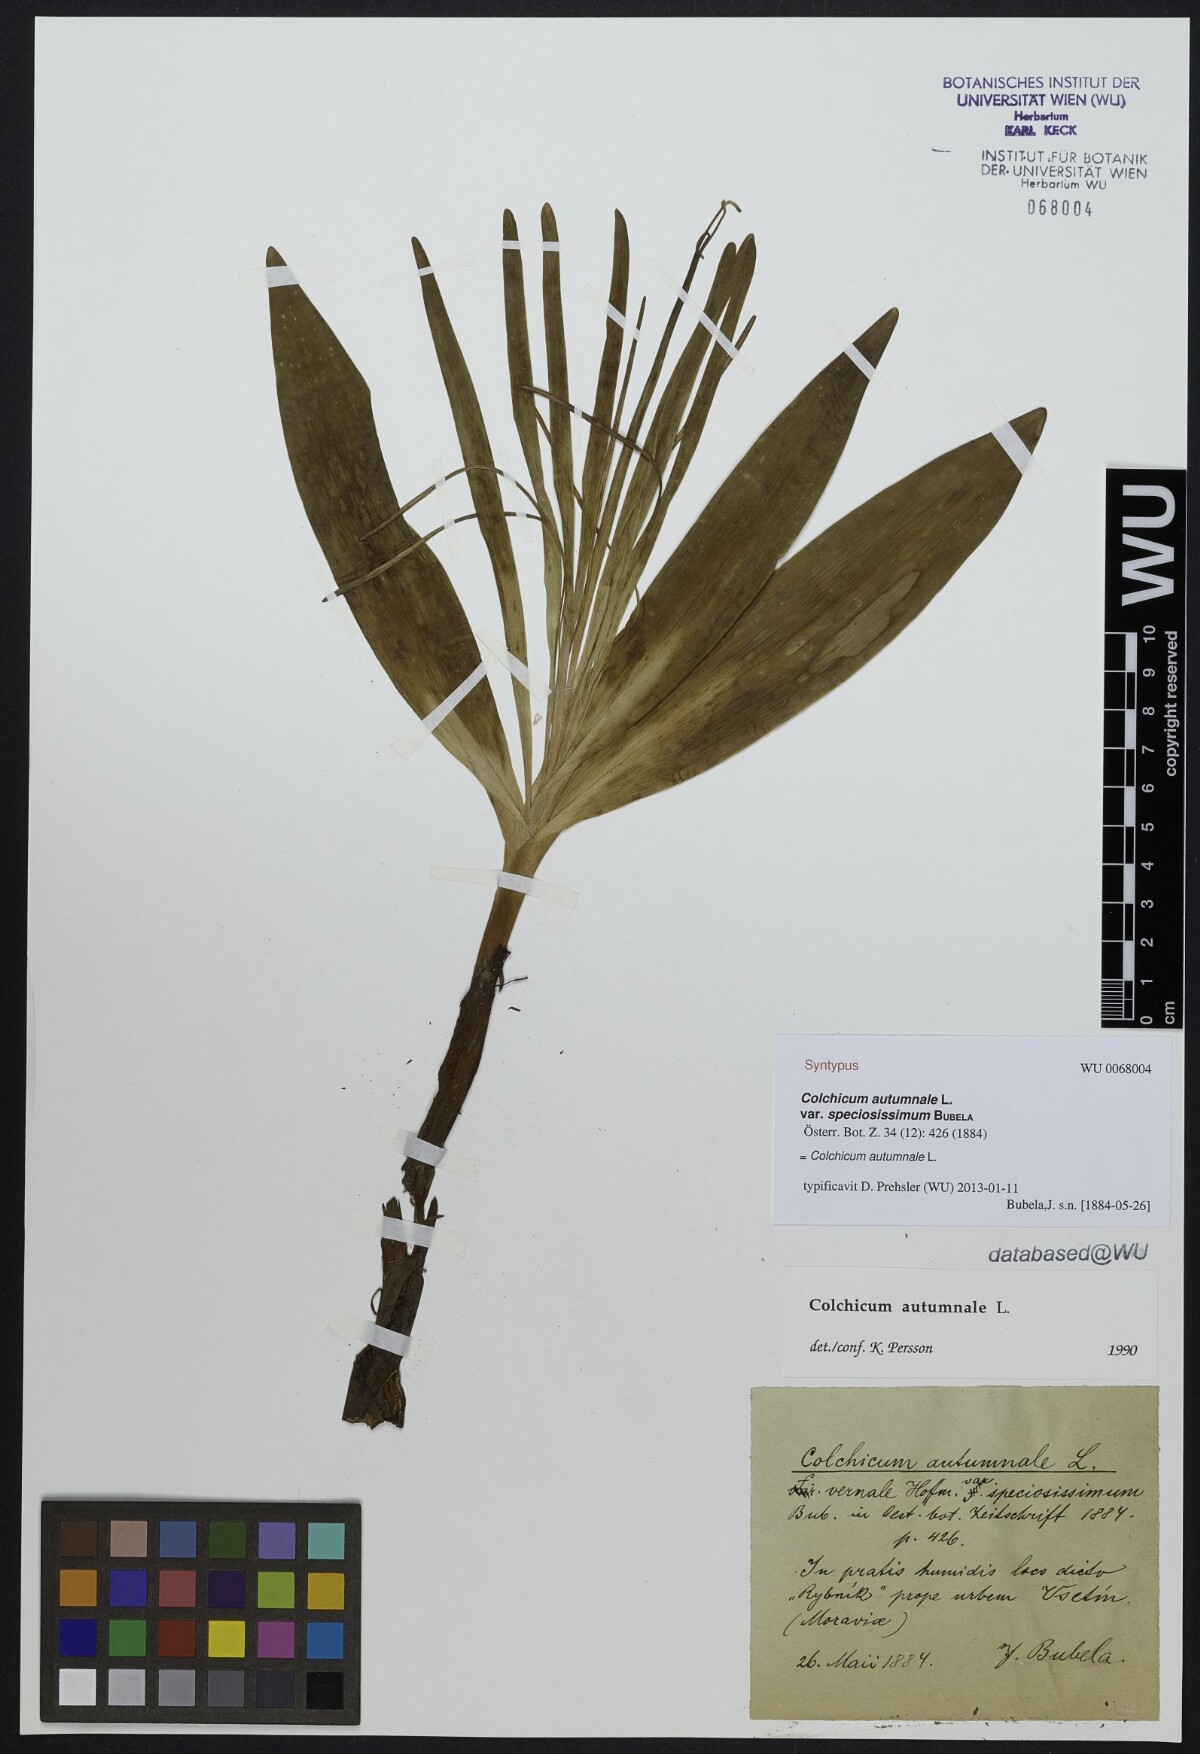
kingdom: Plantae
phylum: Tracheophyta
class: Liliopsida
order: Liliales
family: Colchicaceae
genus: Colchicum
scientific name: Colchicum autumnale
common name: Autumn crocus
